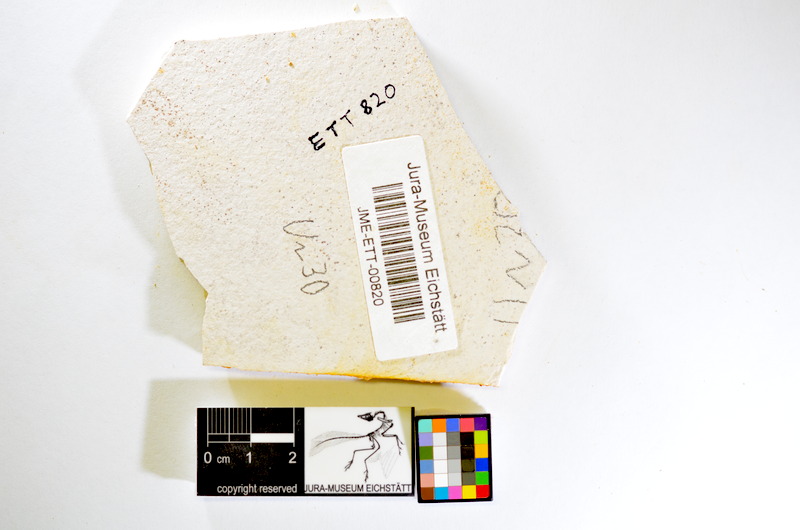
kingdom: Animalia
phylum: Chordata
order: Salmoniformes
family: Orthogonikleithridae
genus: Orthogonikleithrus
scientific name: Orthogonikleithrus hoelli
